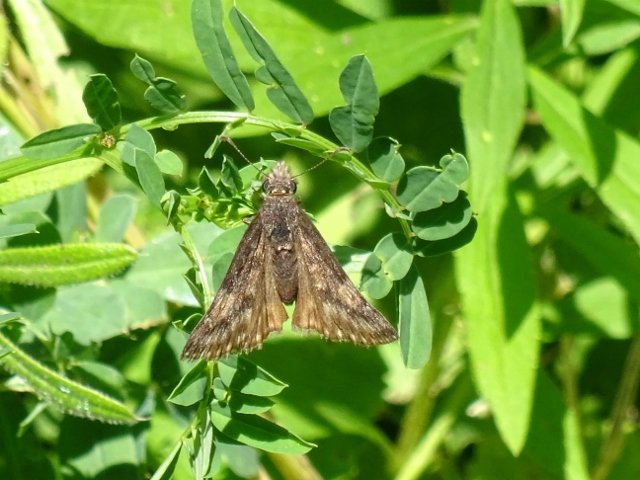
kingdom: Animalia
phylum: Arthropoda
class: Insecta
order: Lepidoptera
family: Hesperiidae
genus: Gesta
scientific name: Gesta
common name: Wild Indigo Duskywing
